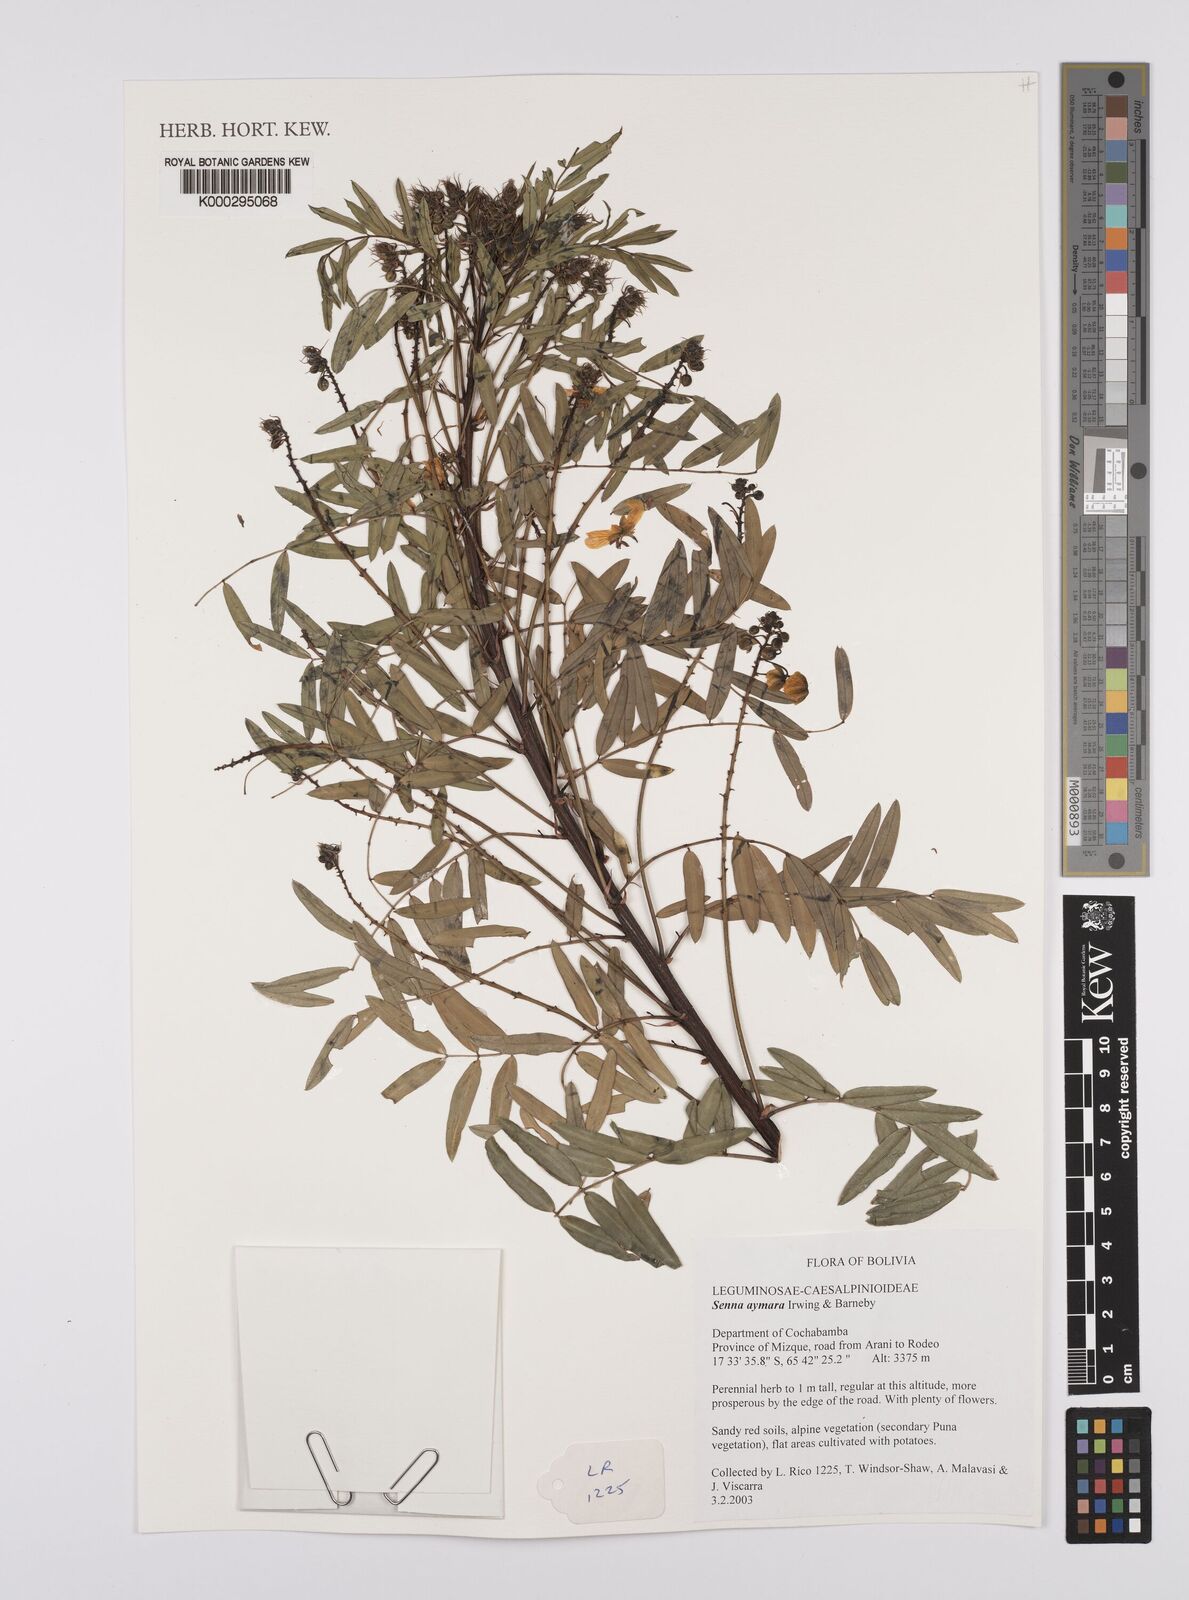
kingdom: Plantae
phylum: Tracheophyta
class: Magnoliopsida
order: Fabales
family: Fabaceae
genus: Senna
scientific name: Senna aymara
